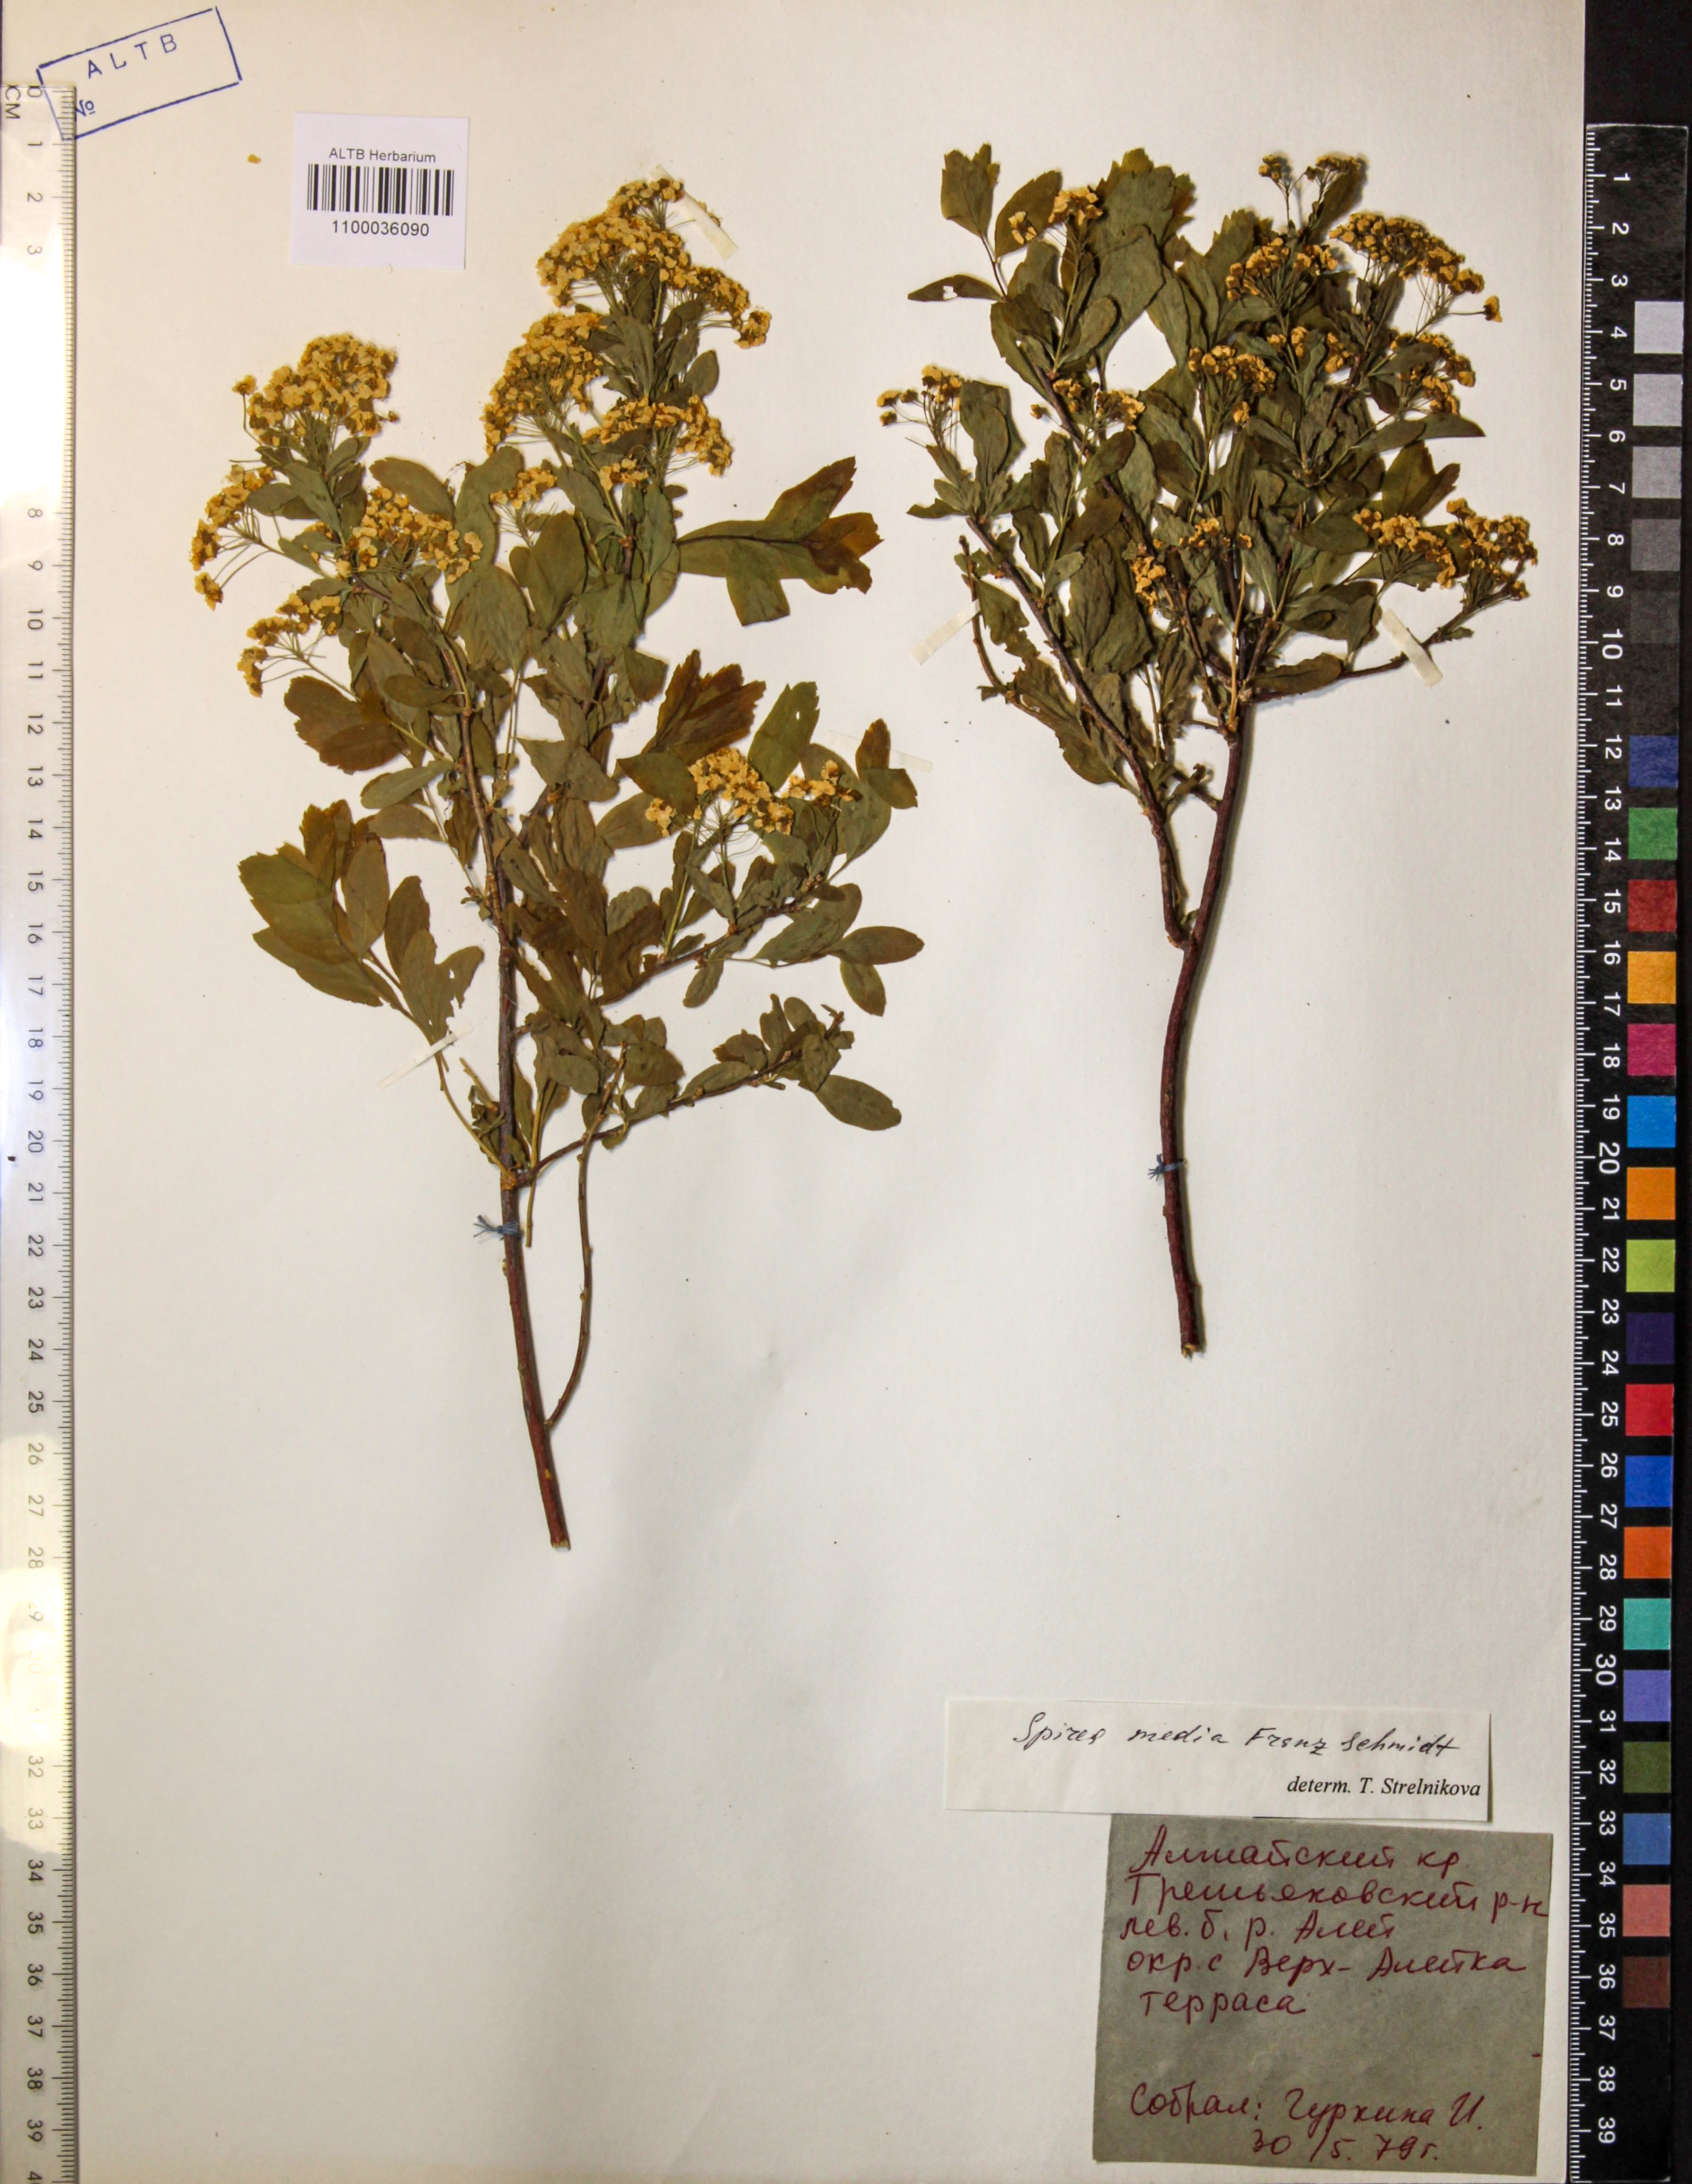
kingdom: Plantae
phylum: Tracheophyta
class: Magnoliopsida
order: Rosales
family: Rosaceae
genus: Spiraea
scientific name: Spiraea media
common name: Russian spiraea
